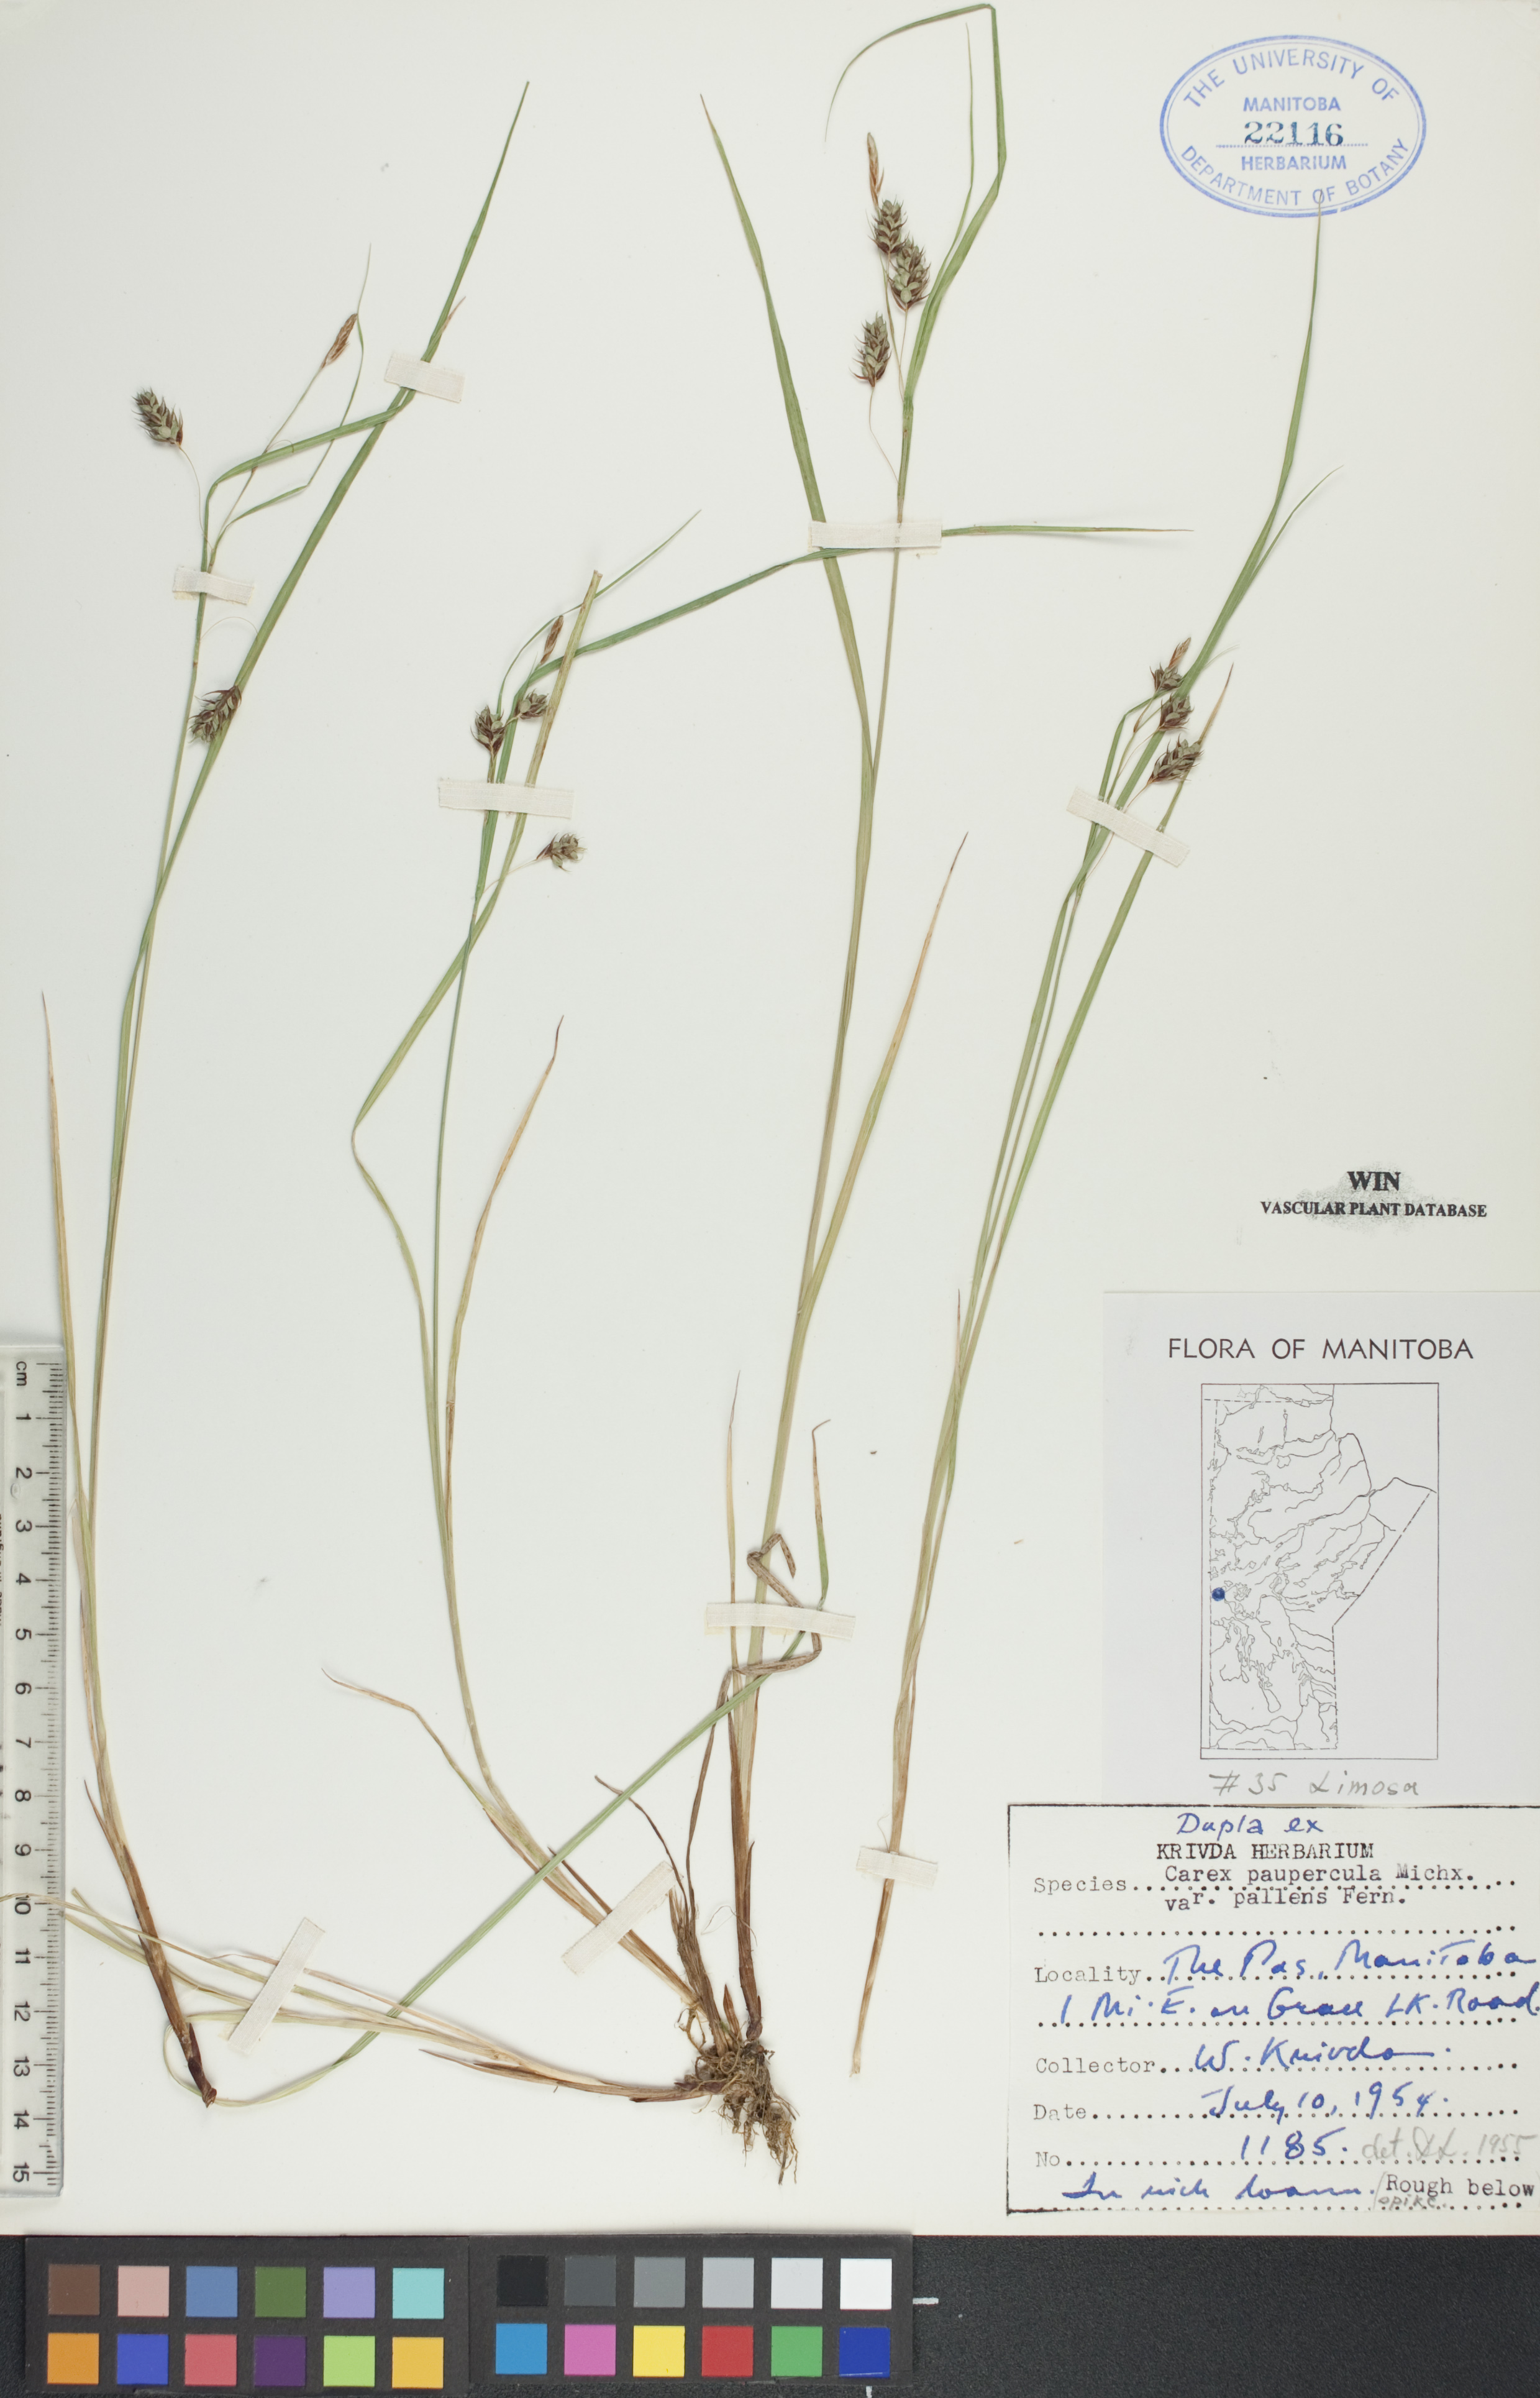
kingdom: Plantae
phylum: Tracheophyta
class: Liliopsida
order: Poales
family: Cyperaceae
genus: Carex
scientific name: Carex magellanica
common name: Bog sedge
